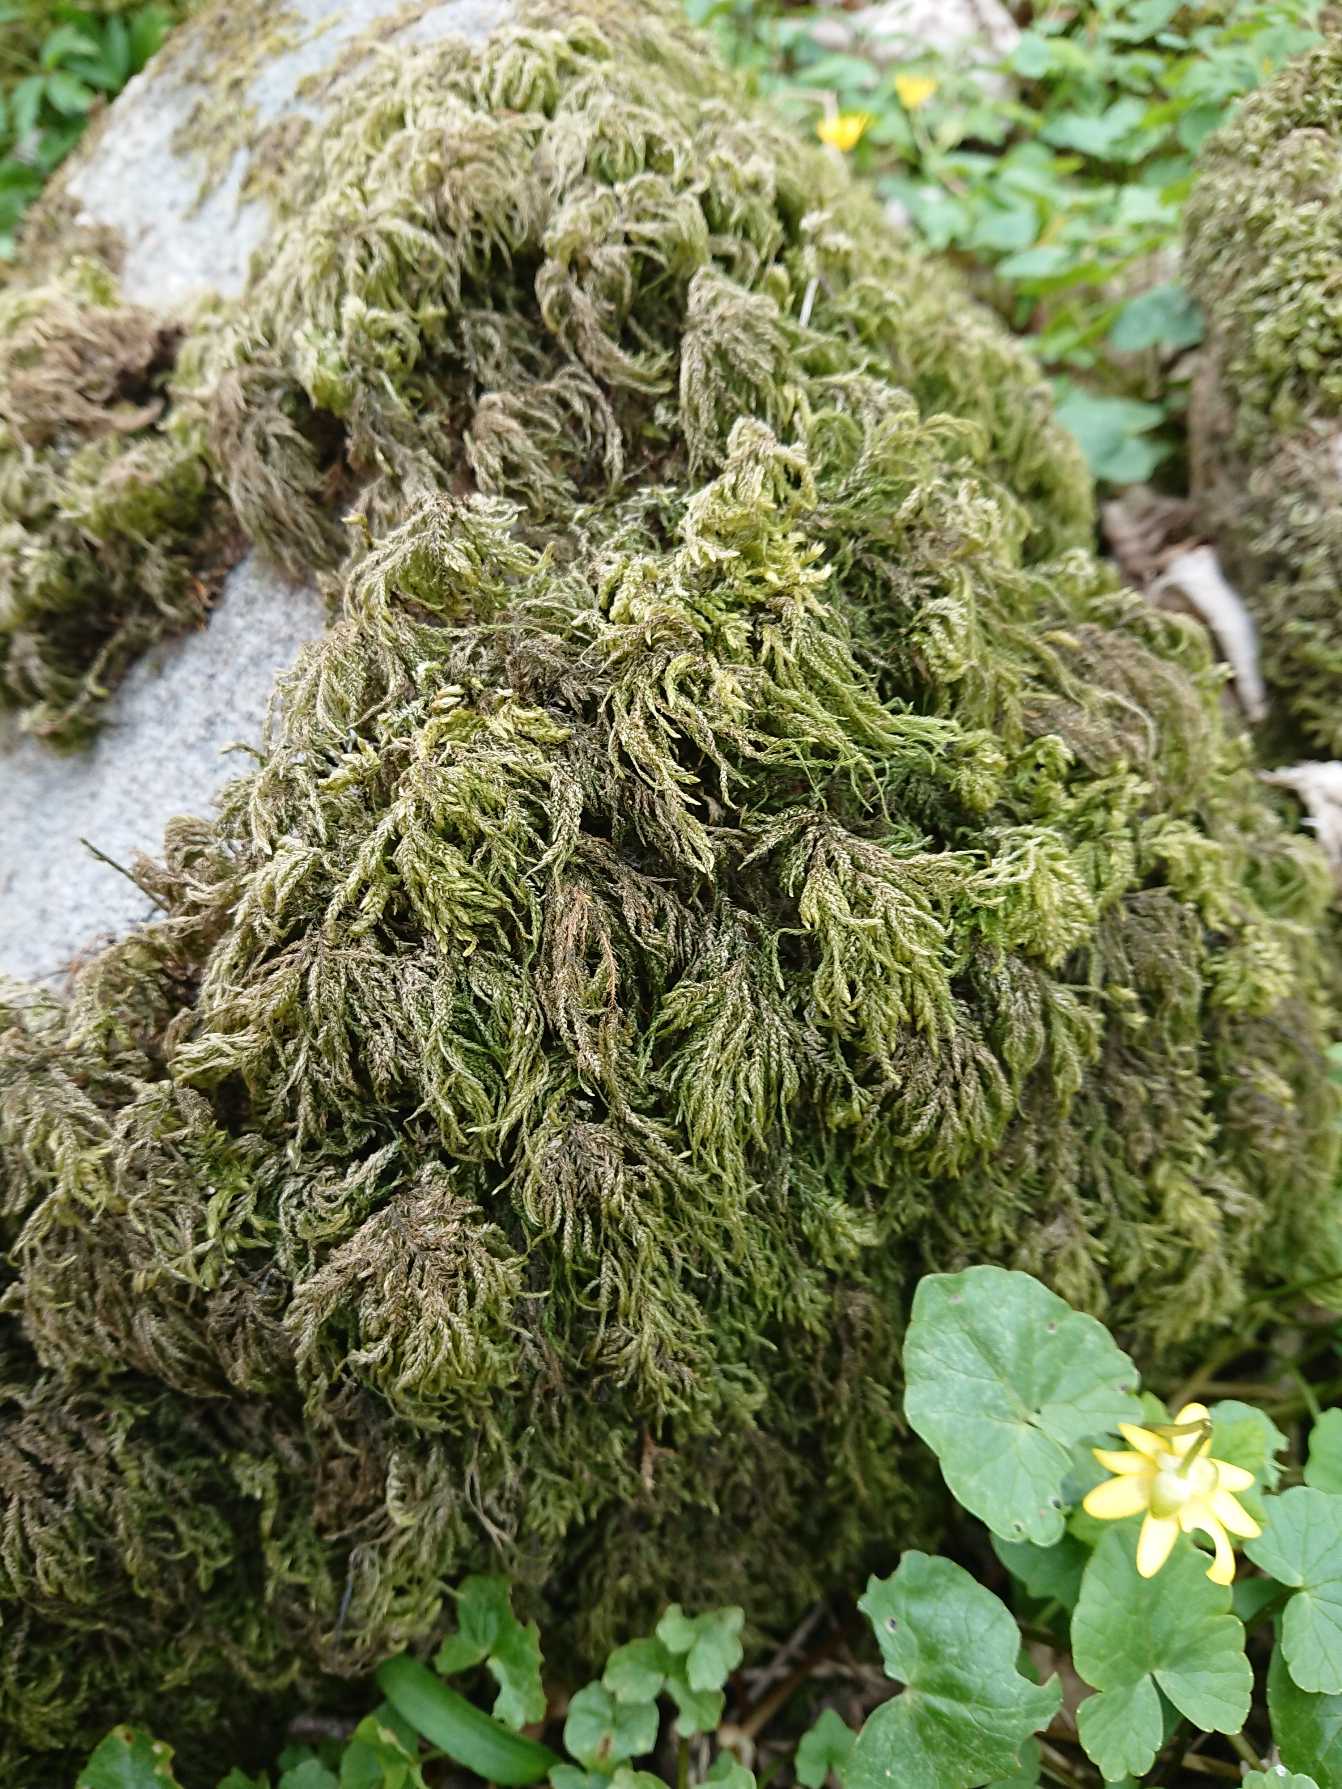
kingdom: Plantae
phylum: Bryophyta
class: Bryopsida
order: Hypnales
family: Neckeraceae
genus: Thamnobryum
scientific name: Thamnobryum alopecurum
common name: Mat bækkost
